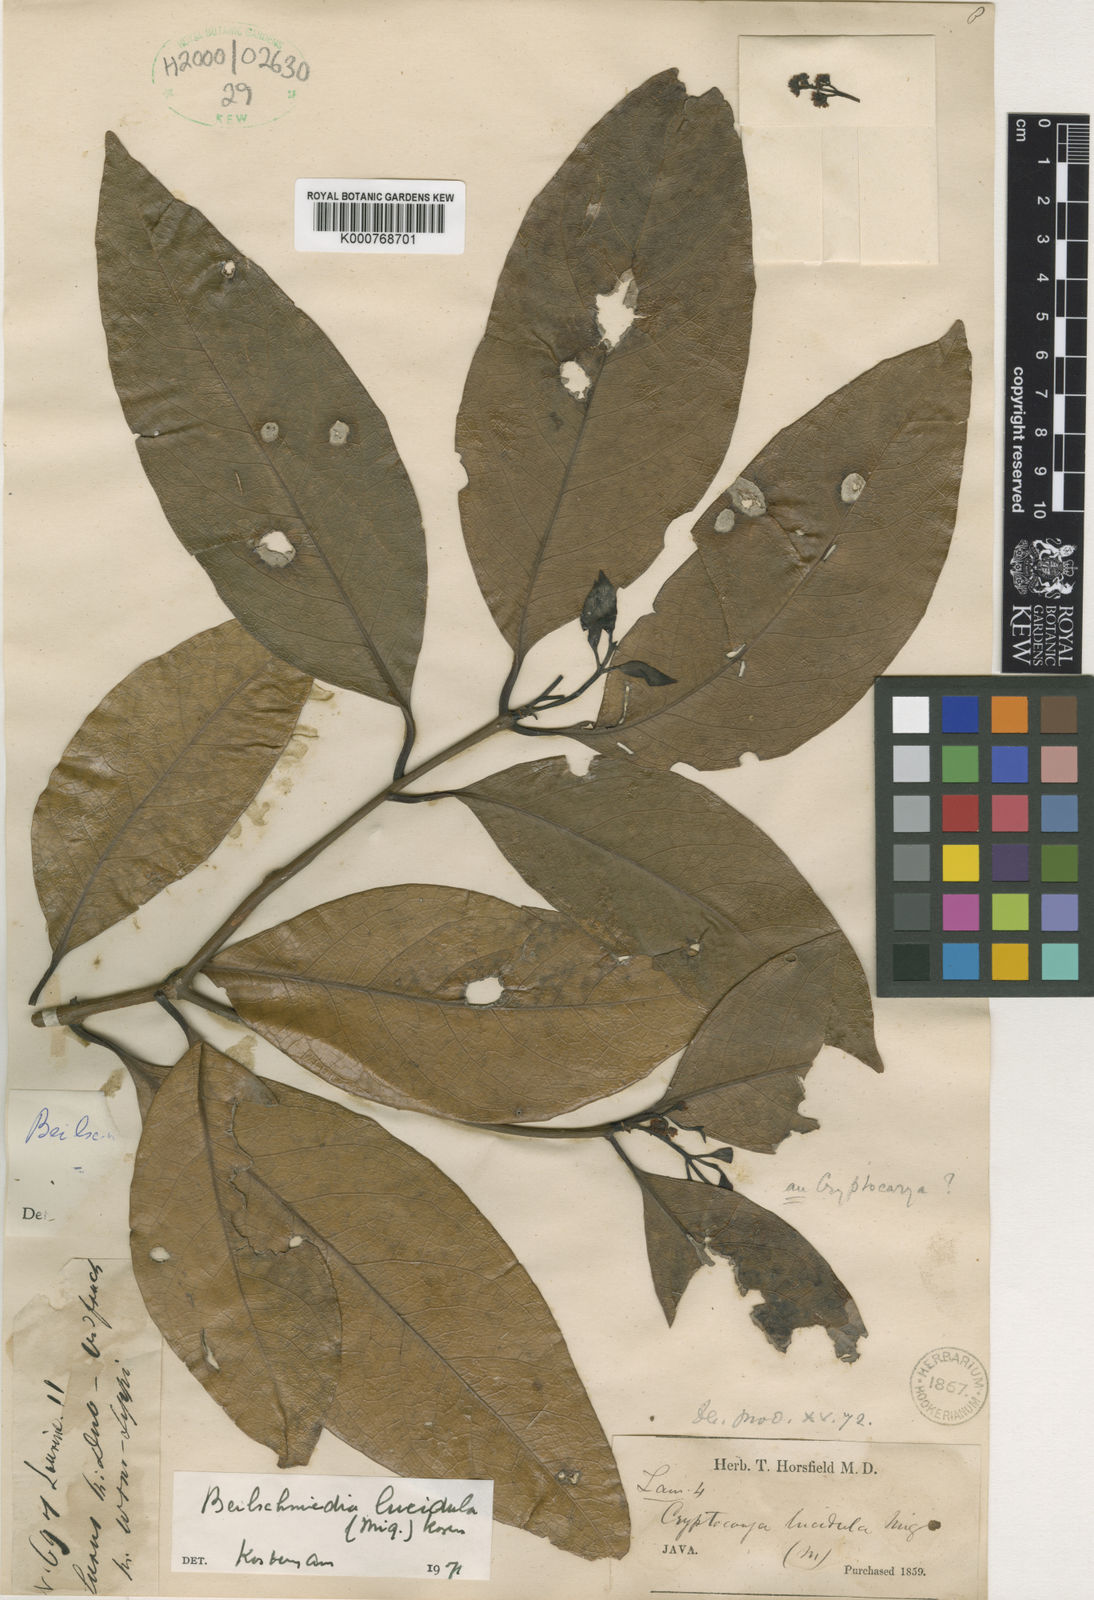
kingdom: Plantae
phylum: Tracheophyta
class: Magnoliopsida
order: Laurales
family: Lauraceae
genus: Beilschmiedia
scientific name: Beilschmiedia lucidula
